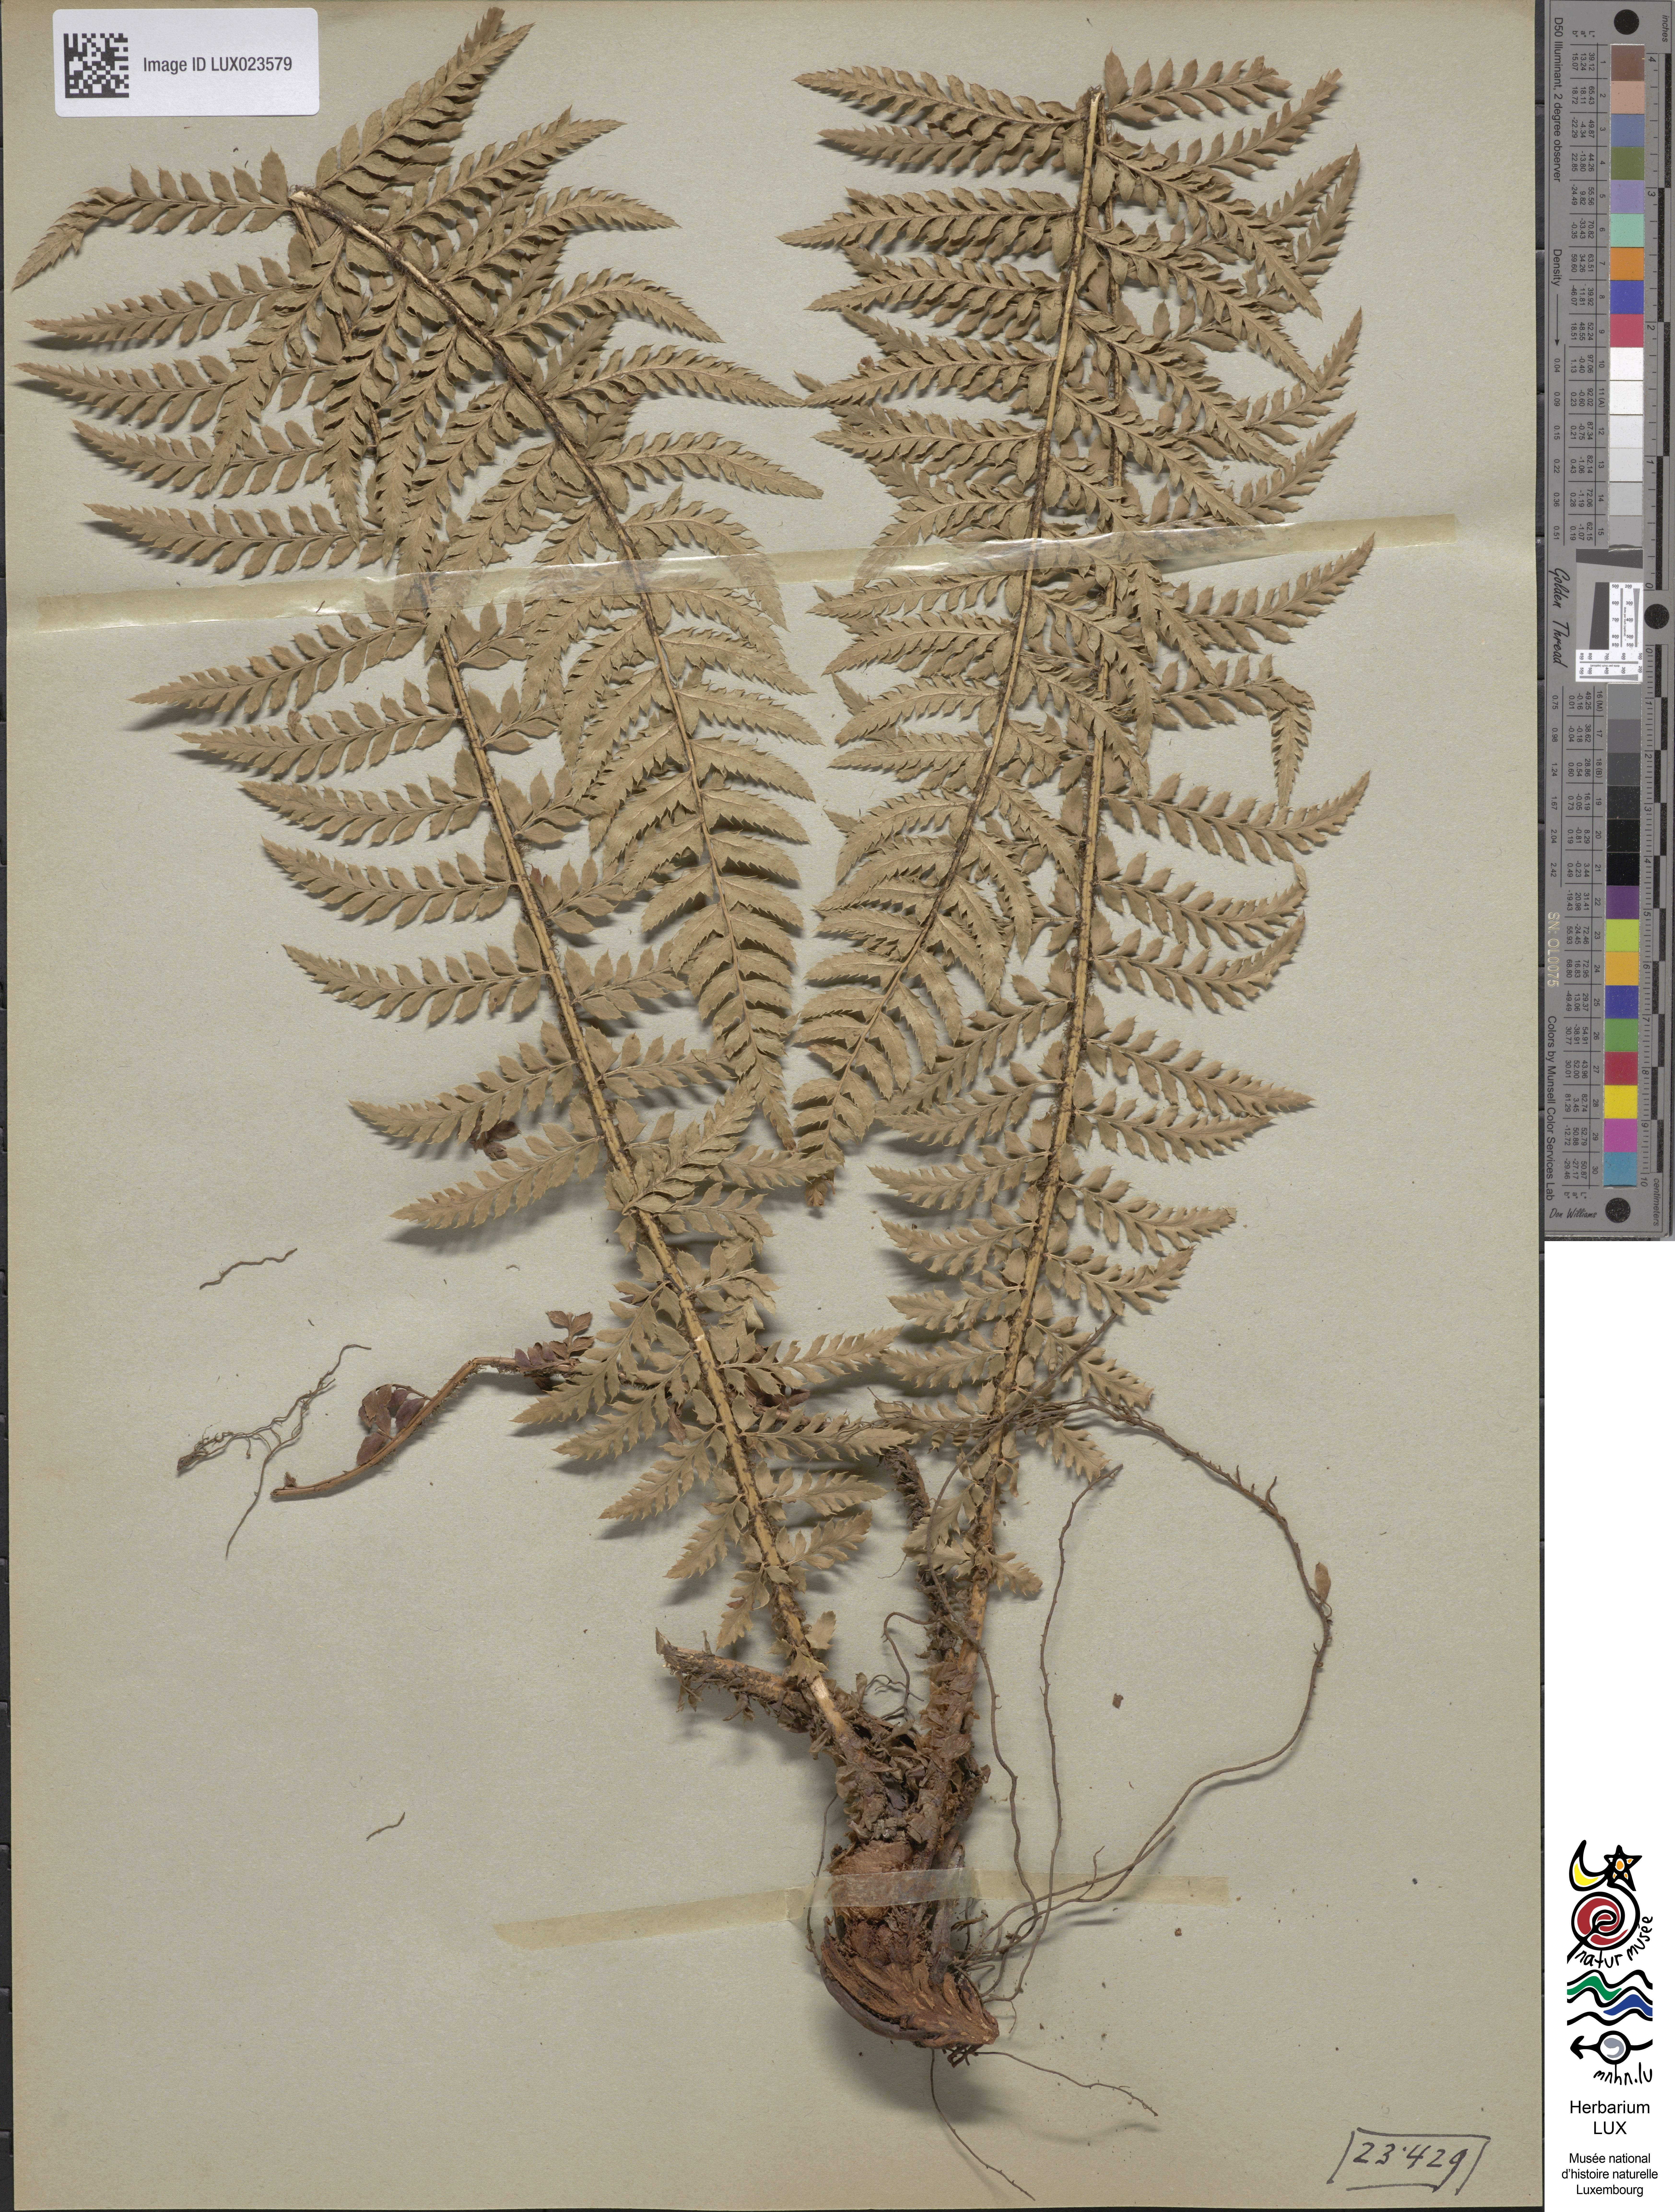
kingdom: Plantae
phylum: Tracheophyta
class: Polypodiopsida
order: Polypodiales
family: Dryopteridaceae
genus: Polystichum
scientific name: Polystichum aculeatum
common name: Hard shield-fern
